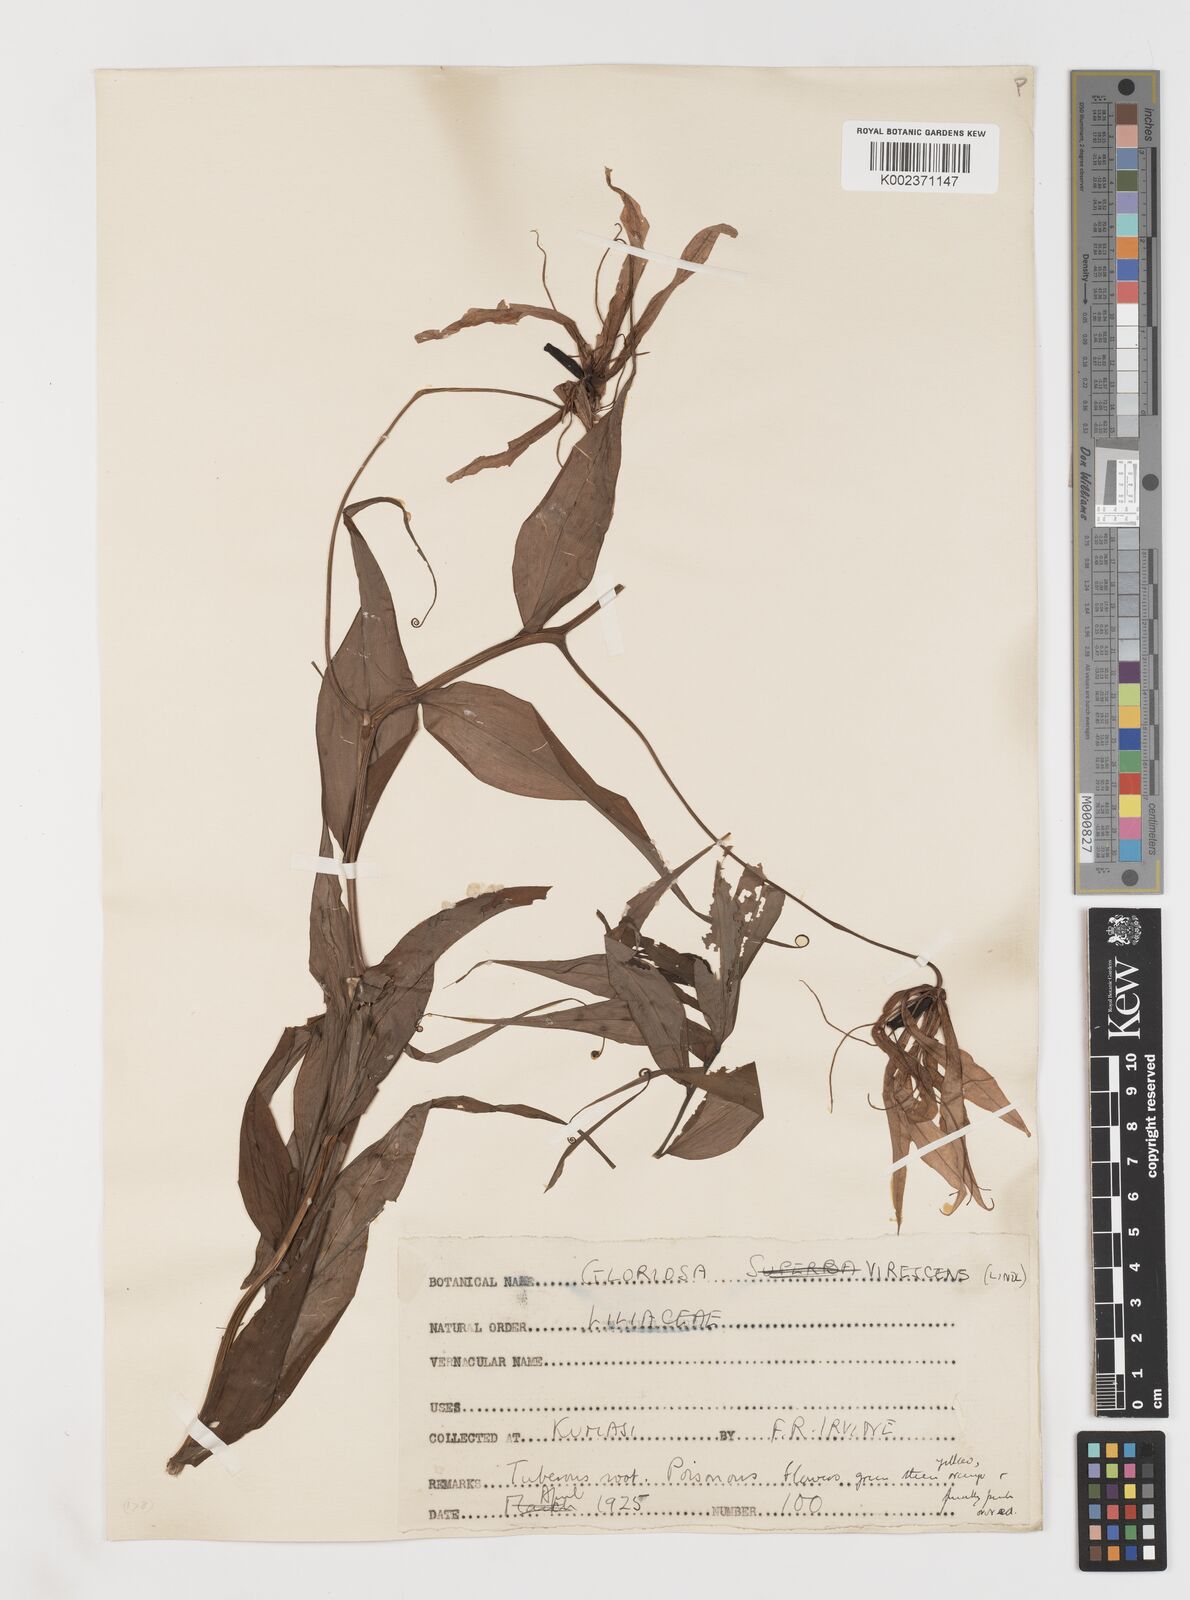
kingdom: Plantae
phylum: Tracheophyta
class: Liliopsida
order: Liliales
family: Colchicaceae
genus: Gloriosa
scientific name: Gloriosa simplex
